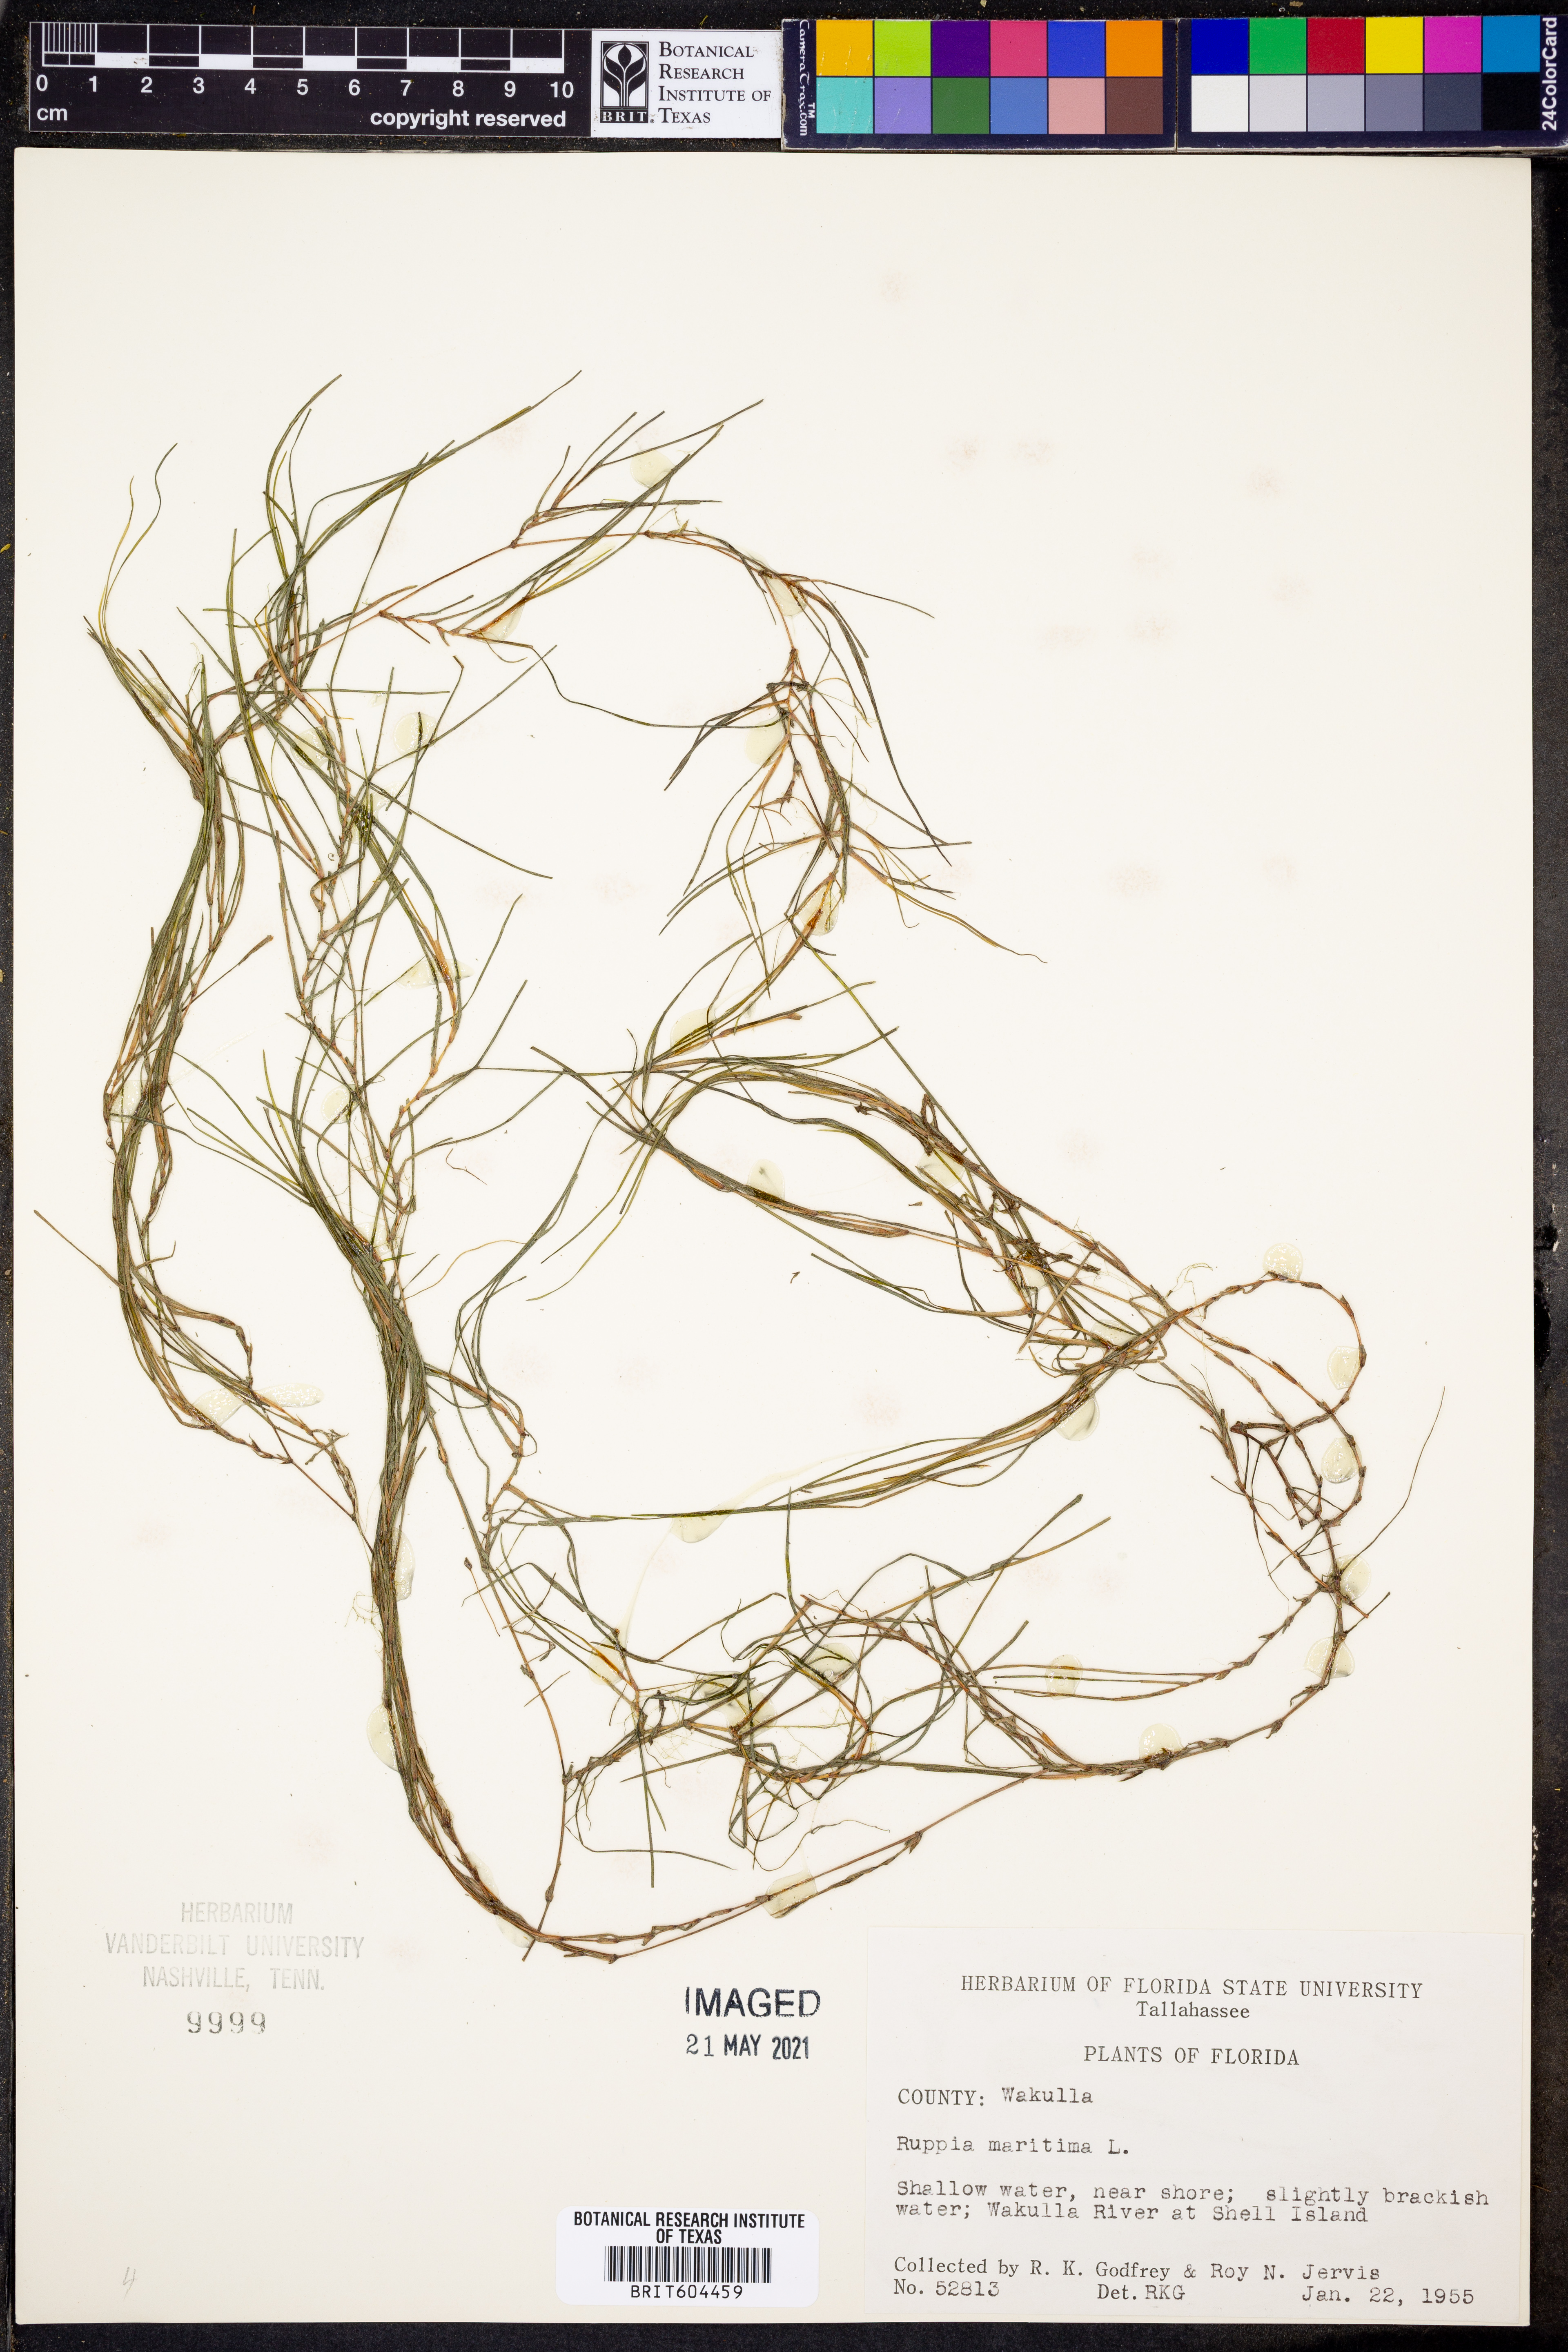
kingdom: Plantae
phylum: Tracheophyta
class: Liliopsida
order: Alismatales
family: Ruppiaceae
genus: Ruppia
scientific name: Ruppia maritima
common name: Beaked tasselweed
